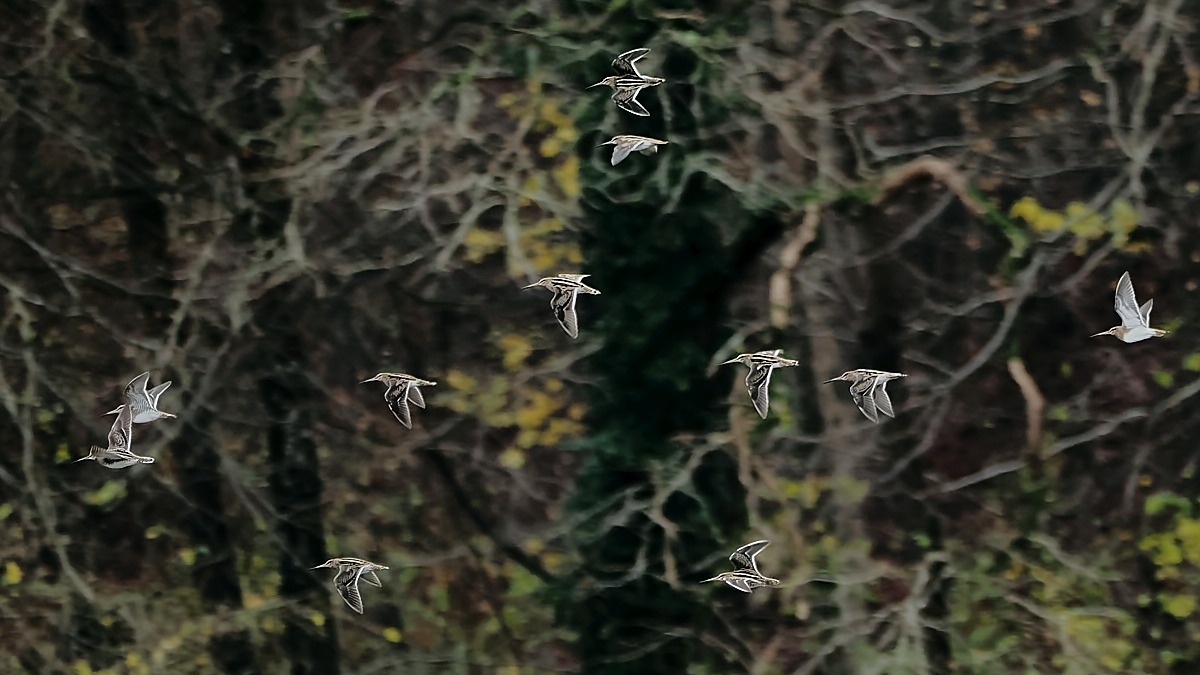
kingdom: Animalia
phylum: Chordata
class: Aves
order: Charadriiformes
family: Scolopacidae
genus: Gallinago
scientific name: Gallinago gallinago
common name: Dobbeltbekkasin
